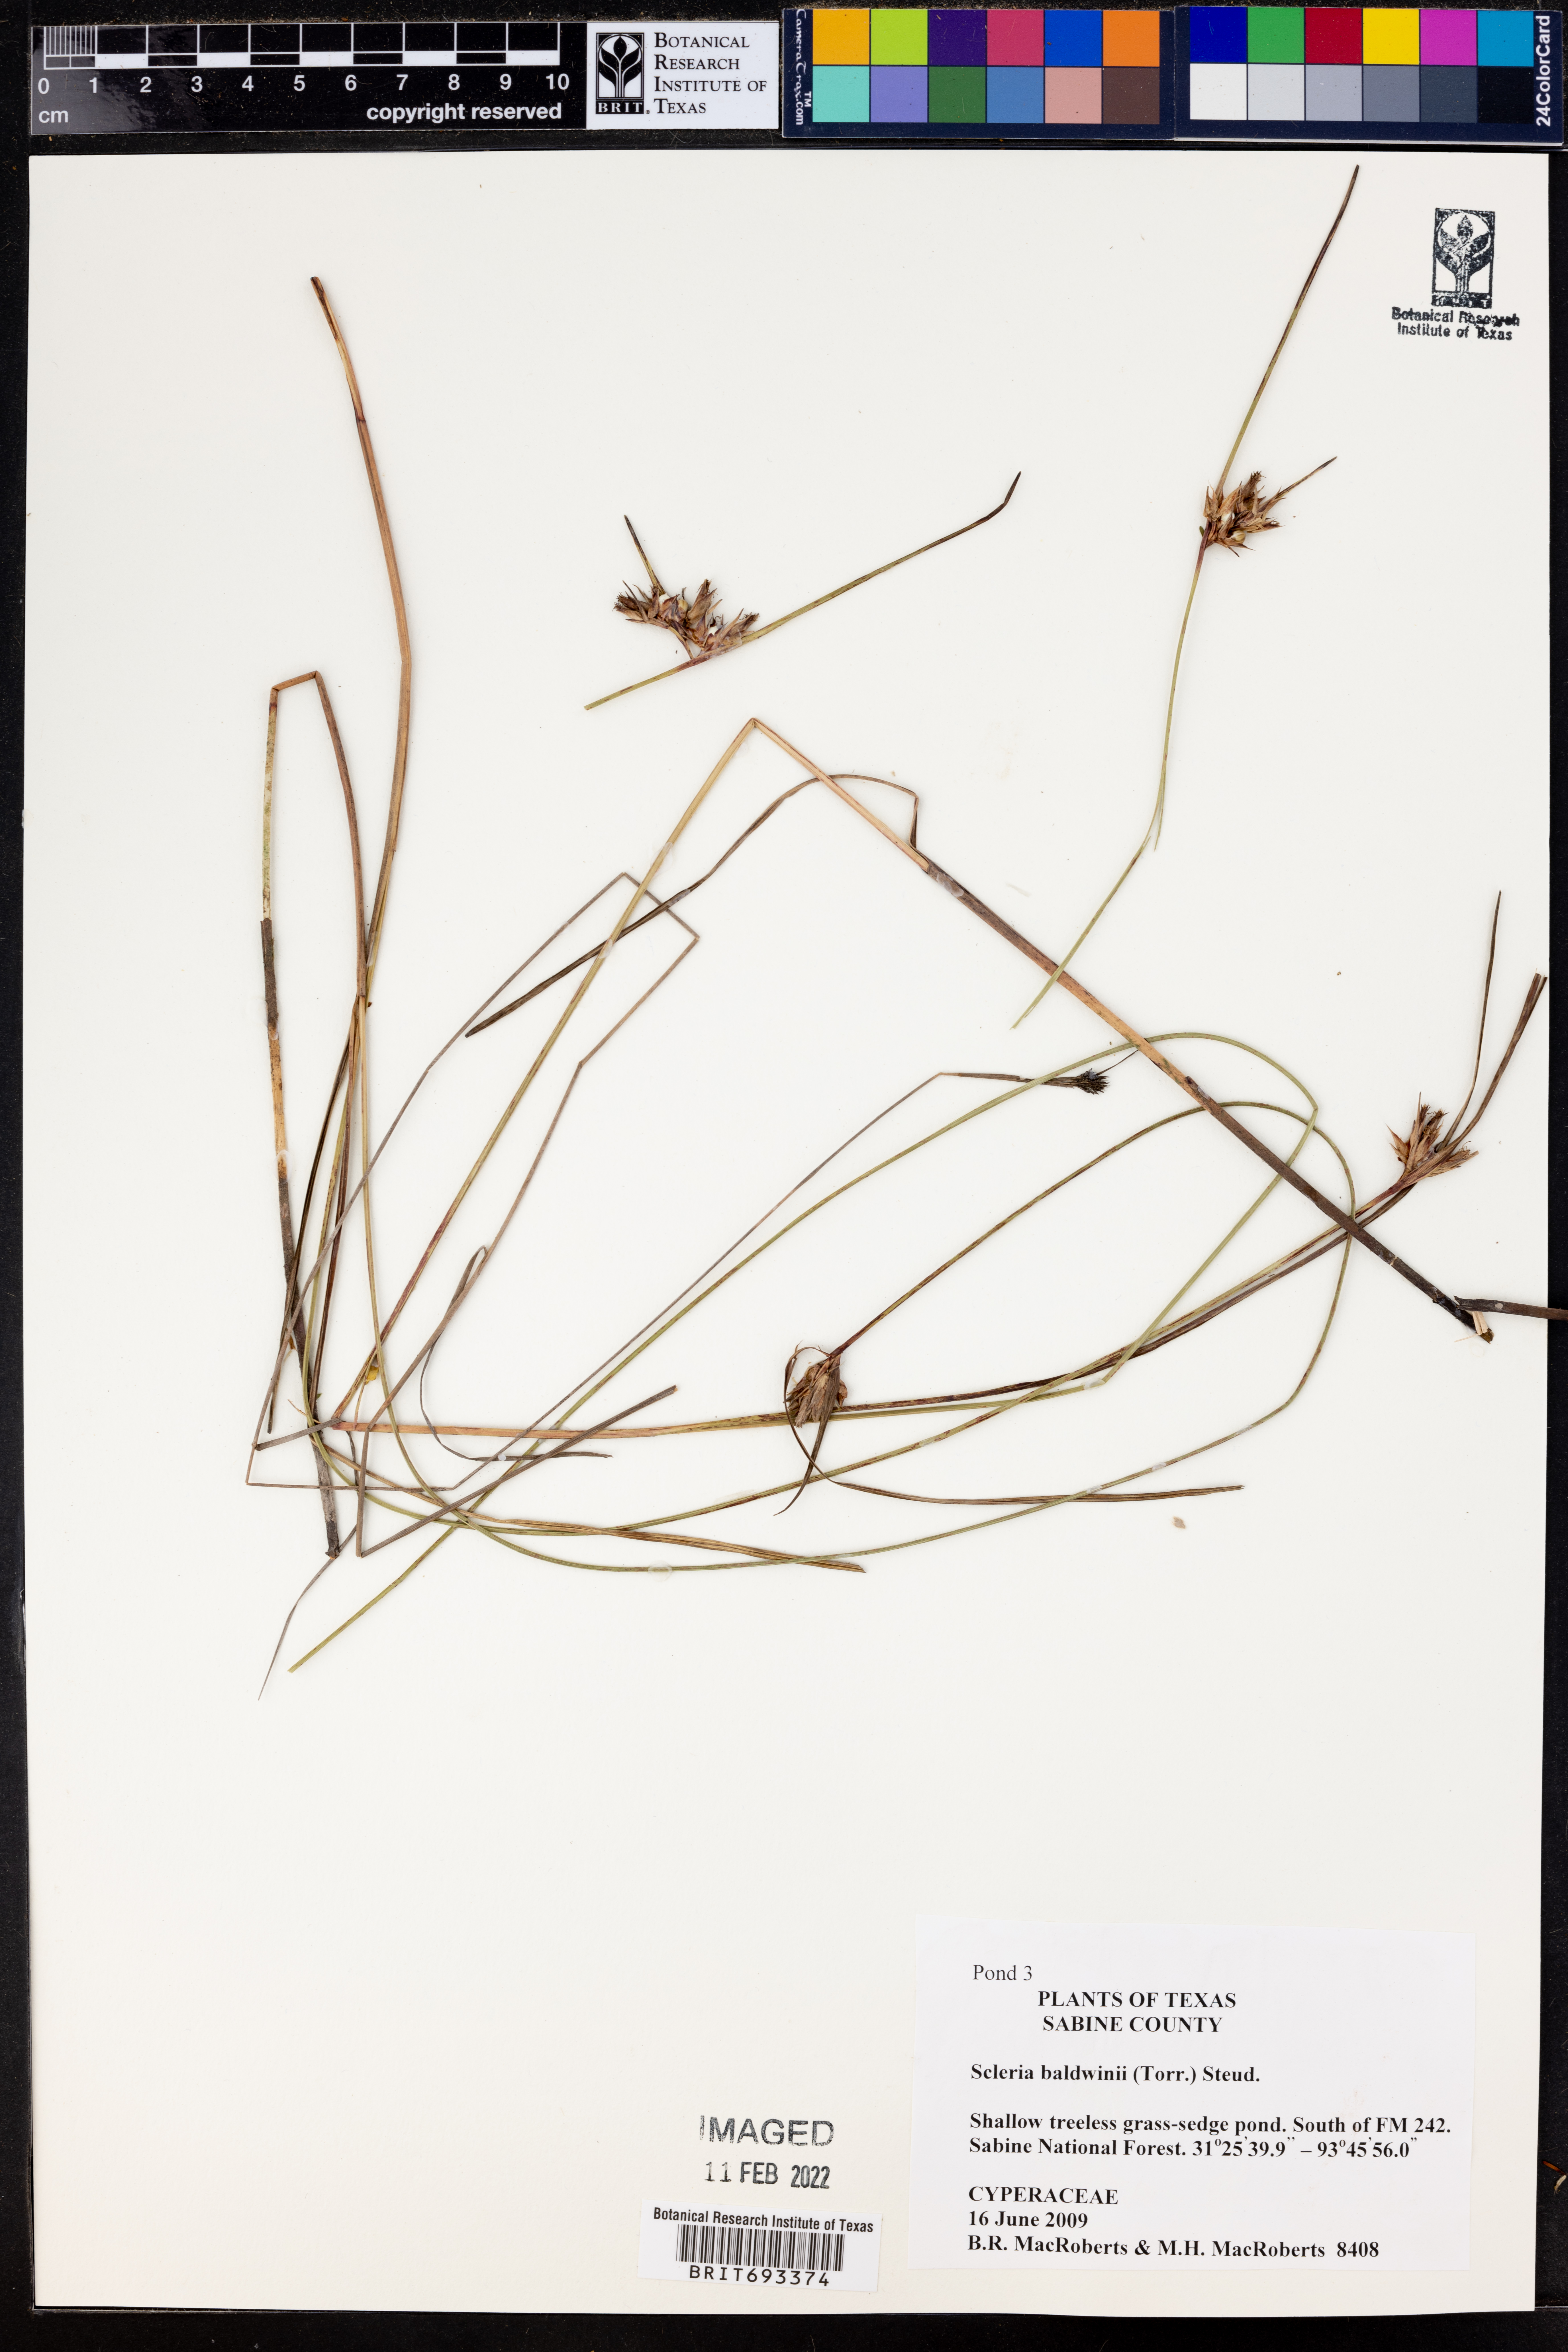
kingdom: Plantae
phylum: Tracheophyta
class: Liliopsida
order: Poales
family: Cyperaceae
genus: Scleria
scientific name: Scleria baldwinii
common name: Baldwin's nutrush
